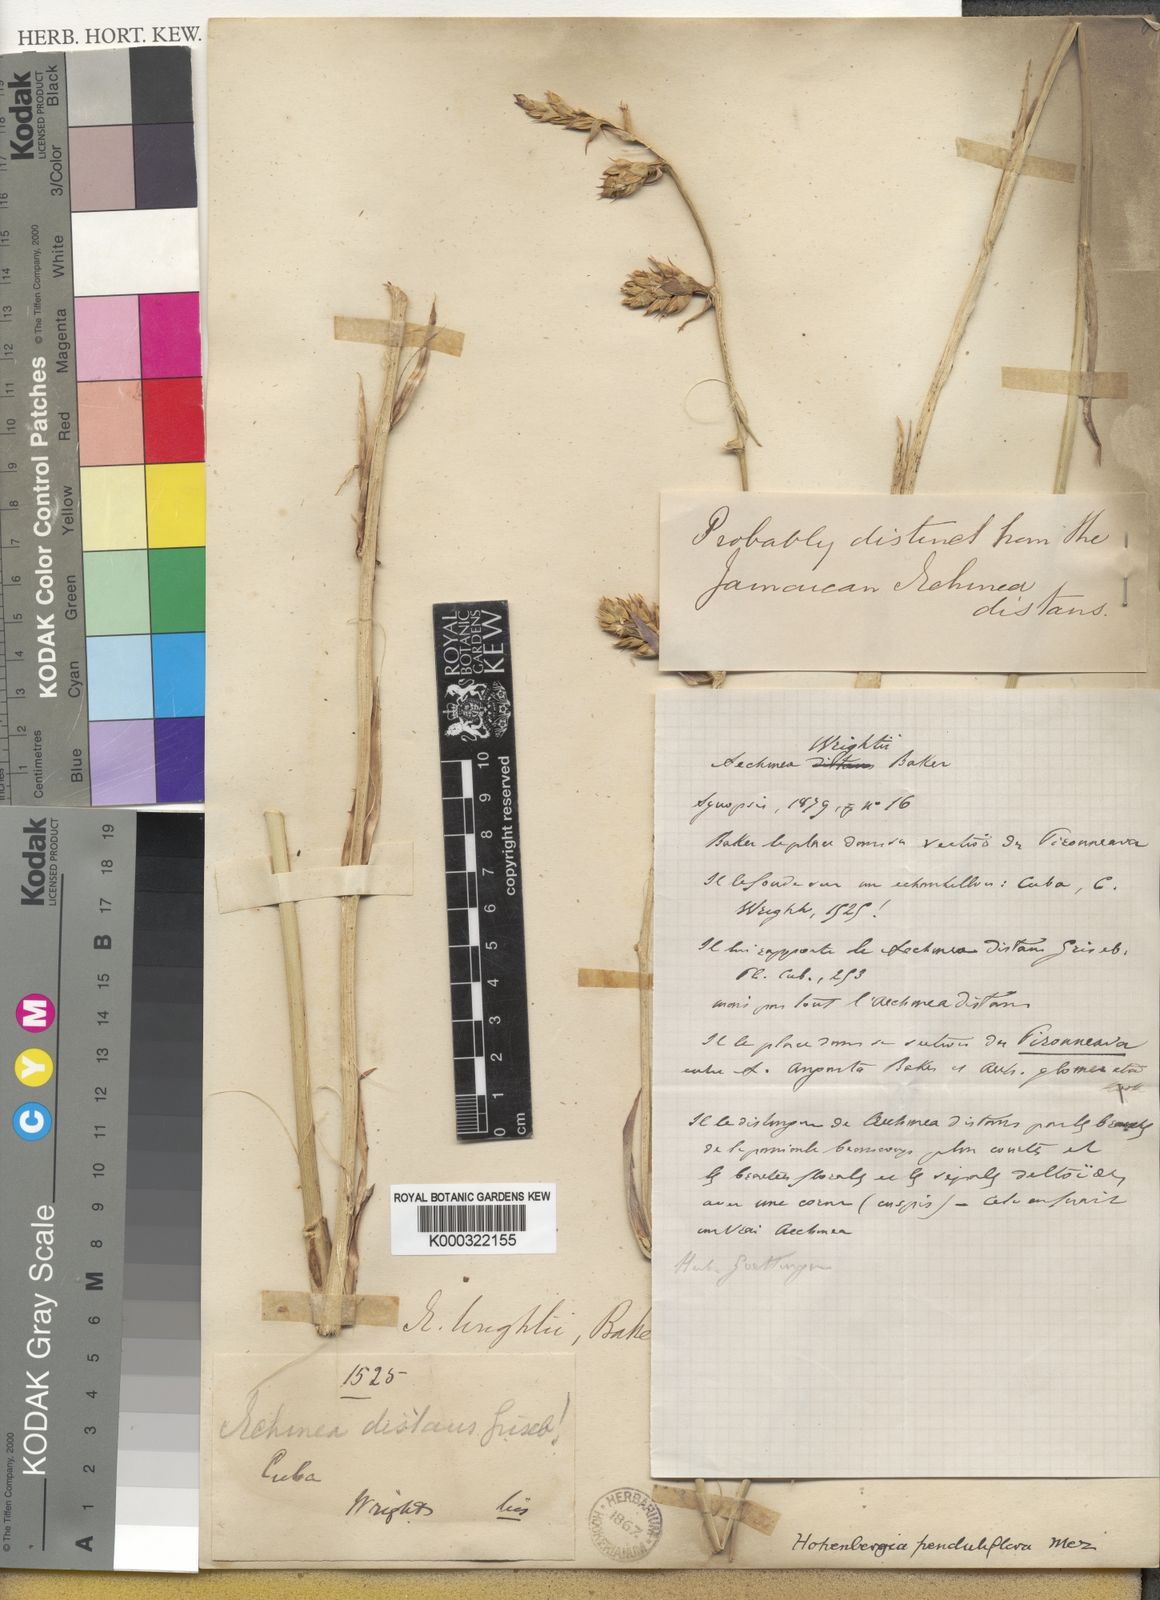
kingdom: Plantae
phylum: Tracheophyta
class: Liliopsida
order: Poales
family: Bromeliaceae
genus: Wittmackia
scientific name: Wittmackia penduliflora
